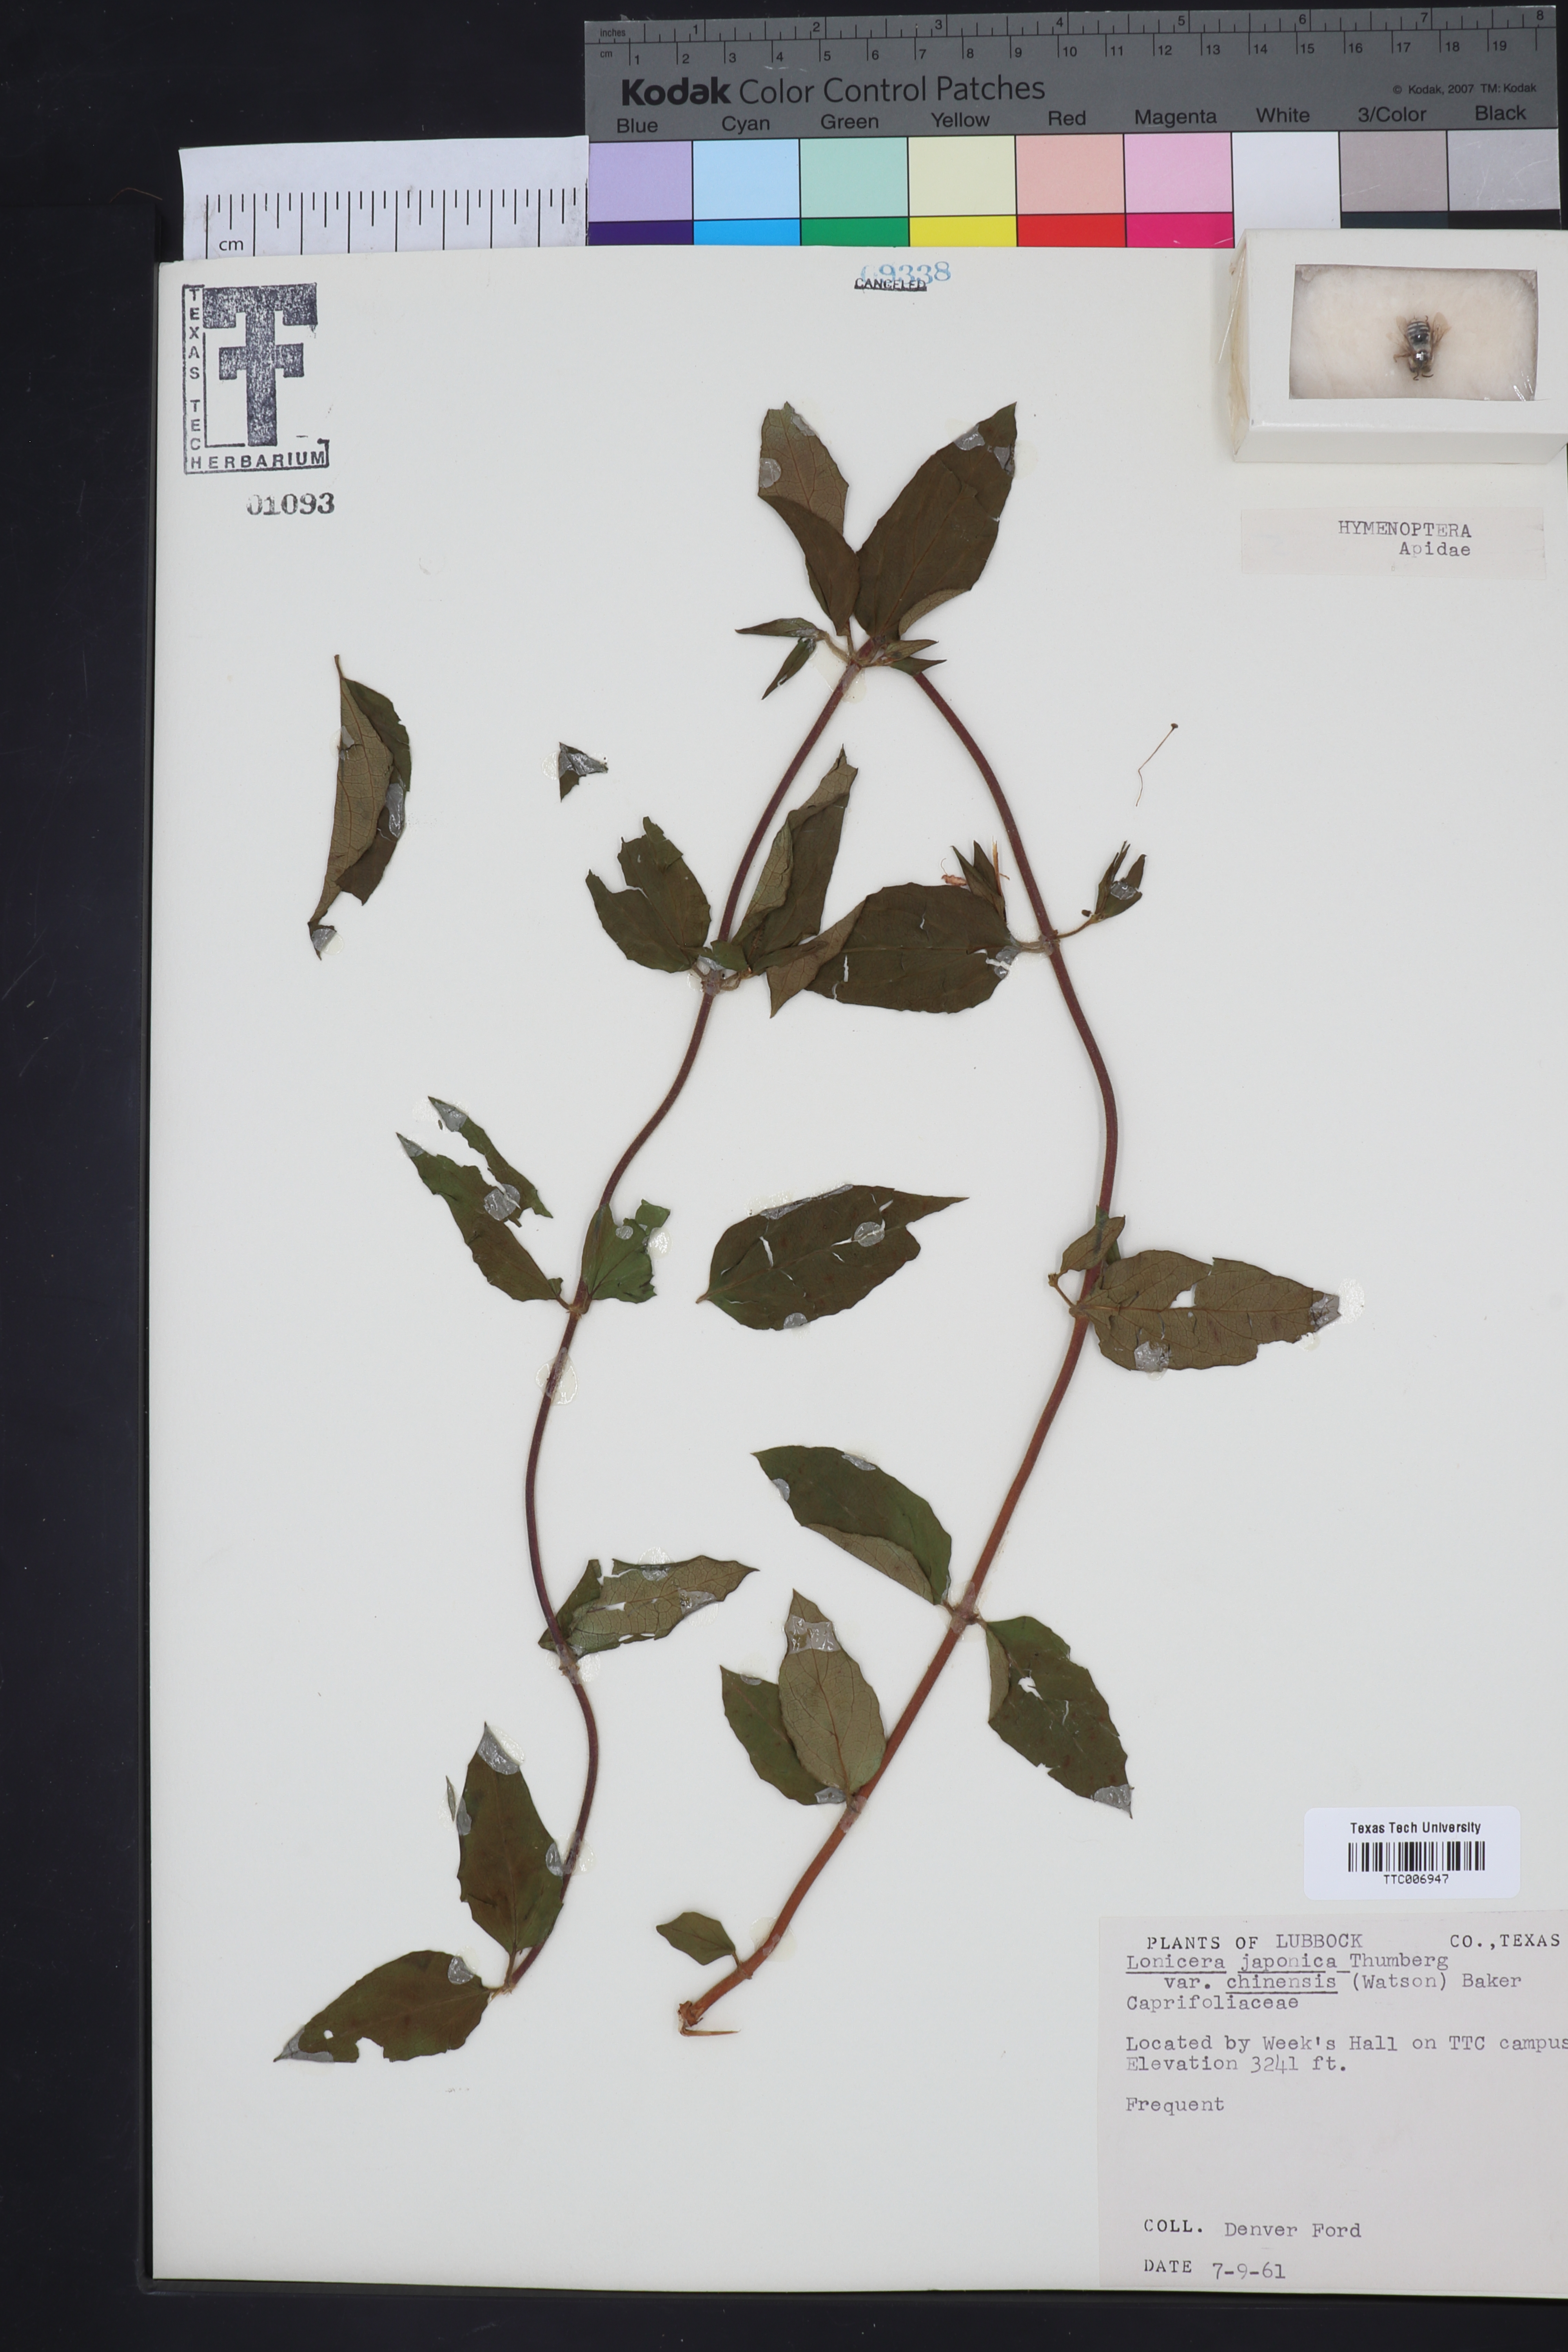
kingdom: Plantae
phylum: Tracheophyta
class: Magnoliopsida
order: Dipsacales
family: Caprifoliaceae
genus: Lonicera
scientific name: Lonicera japonica
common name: Japanese honeysuckle
